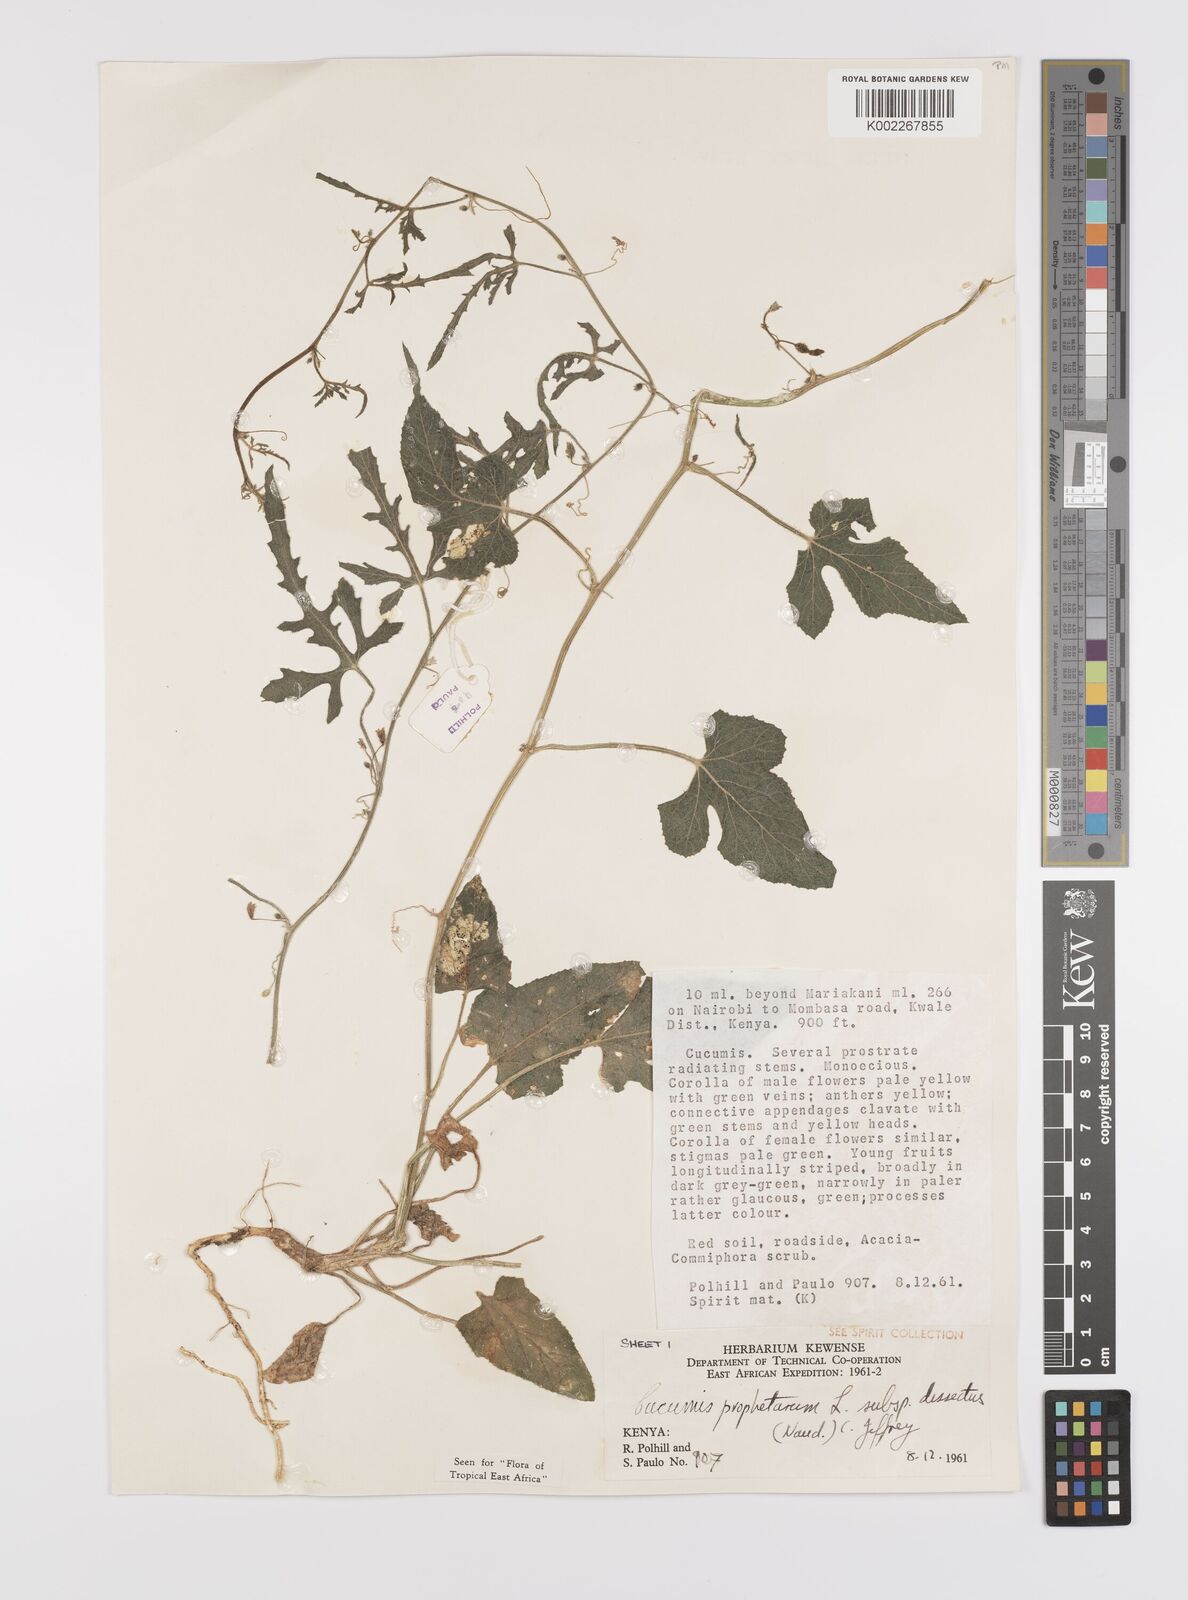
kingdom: Plantae
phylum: Tracheophyta
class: Magnoliopsida
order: Cucurbitales
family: Cucurbitaceae
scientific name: Cucurbitaceae
